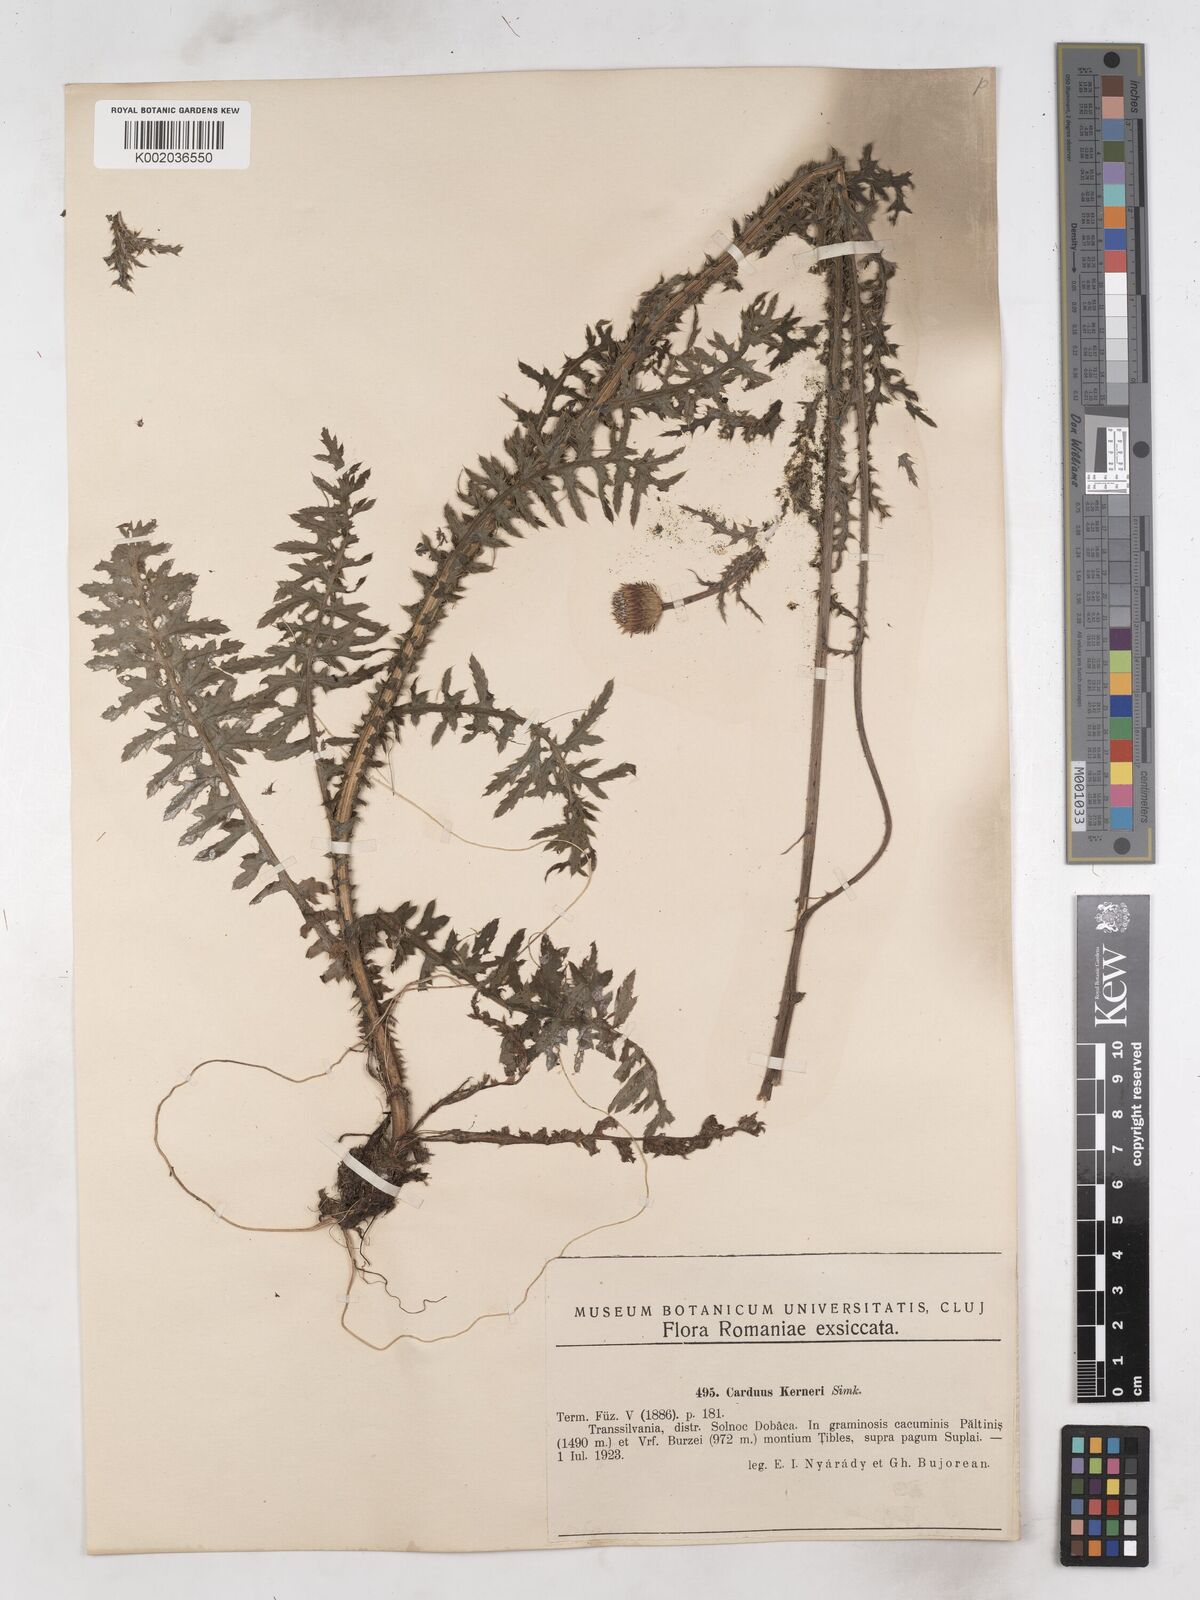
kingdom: Plantae
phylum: Tracheophyta
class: Magnoliopsida
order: Asterales
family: Asteraceae
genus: Carduus
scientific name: Carduus kerneri
